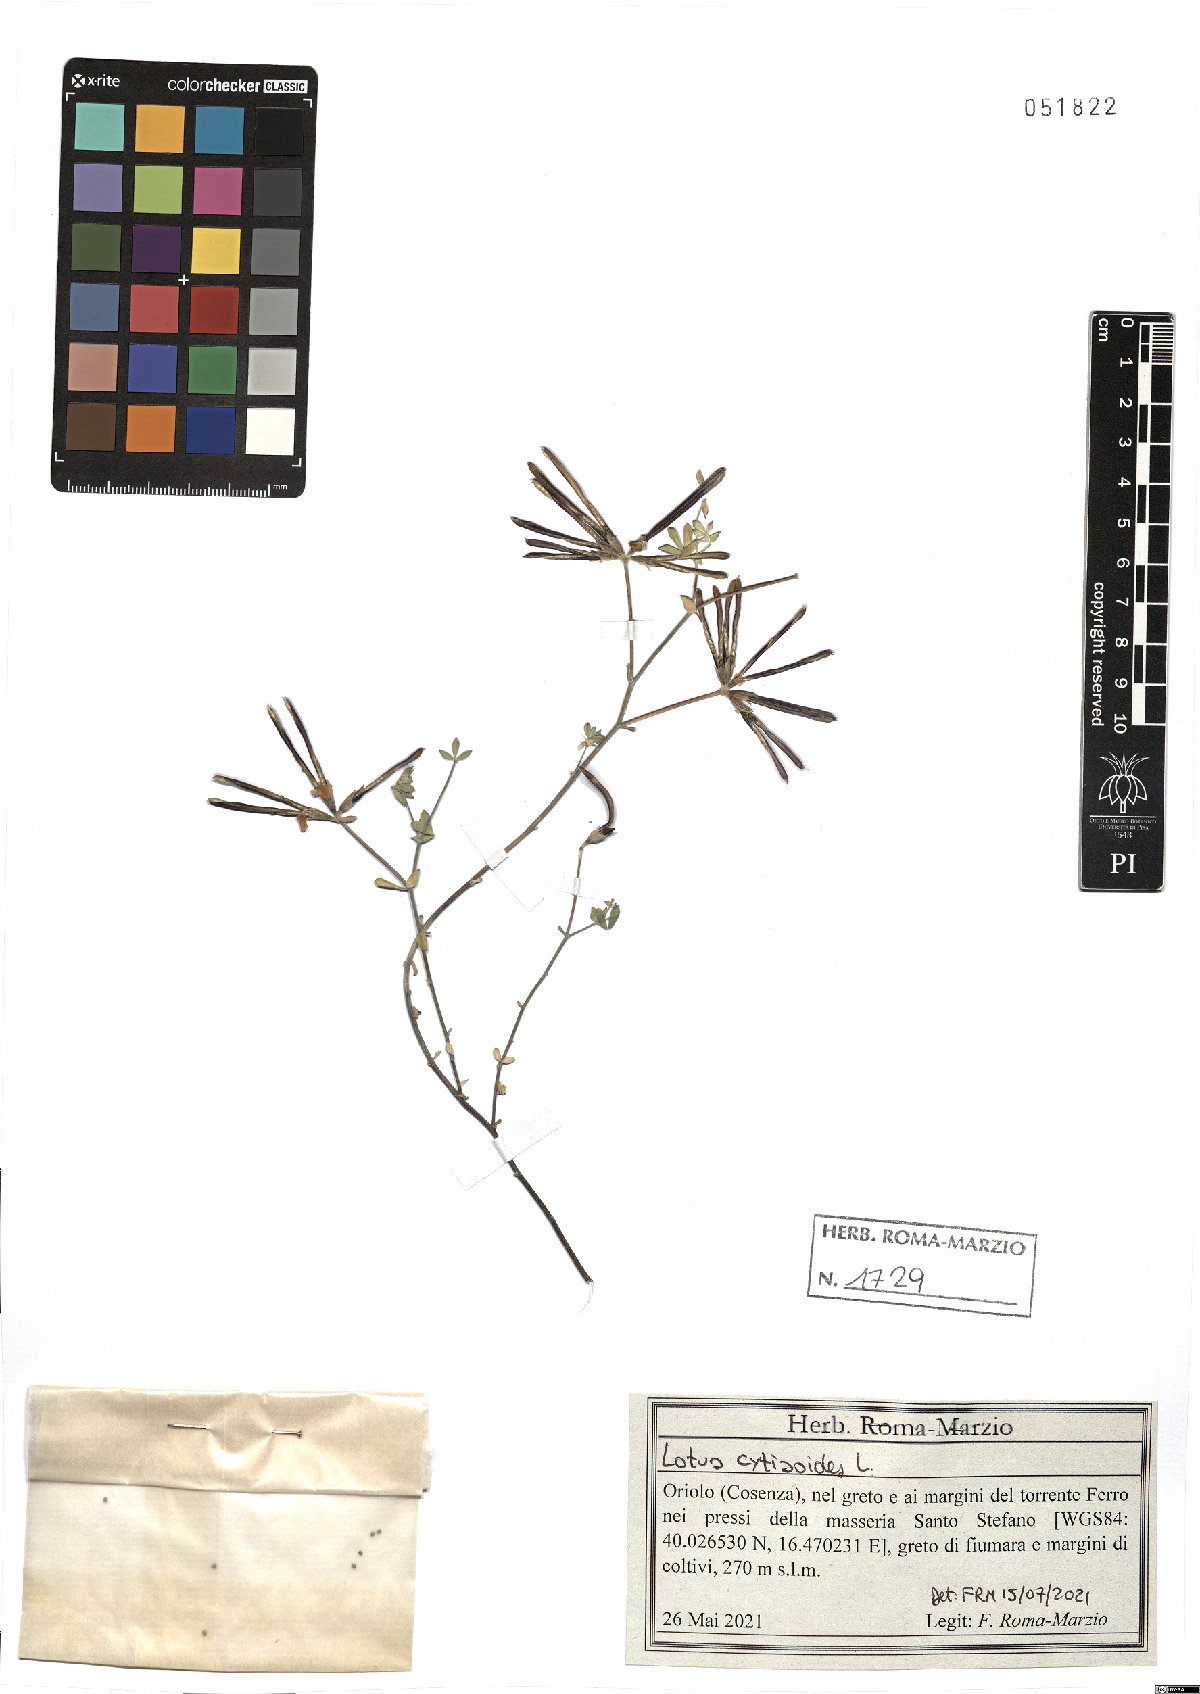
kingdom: Plantae
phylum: Tracheophyta
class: Magnoliopsida
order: Fabales
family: Fabaceae
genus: Lotus
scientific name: Lotus cytisoides
